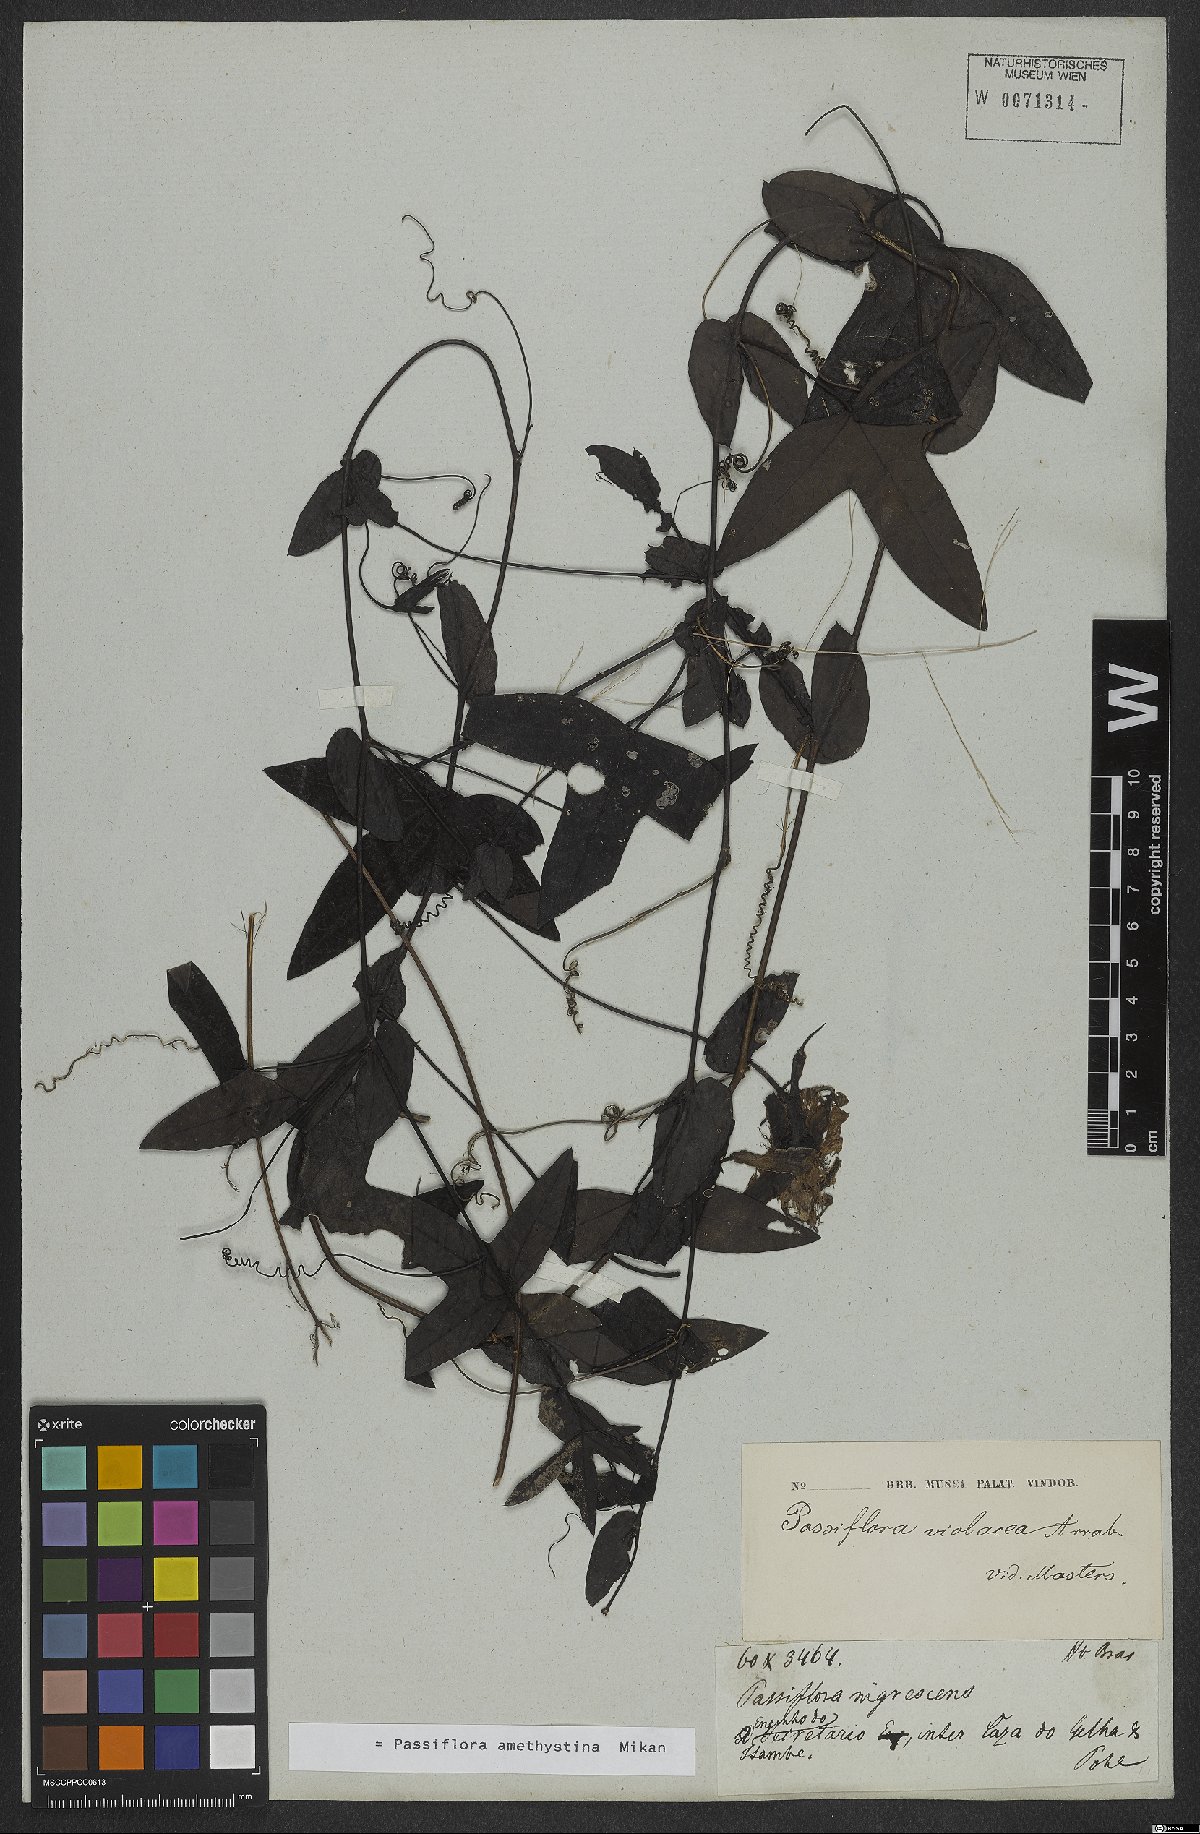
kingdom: Plantae
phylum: Tracheophyta
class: Magnoliopsida
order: Malpighiales
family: Passifloraceae
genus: Passiflora
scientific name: Passiflora amethystina
